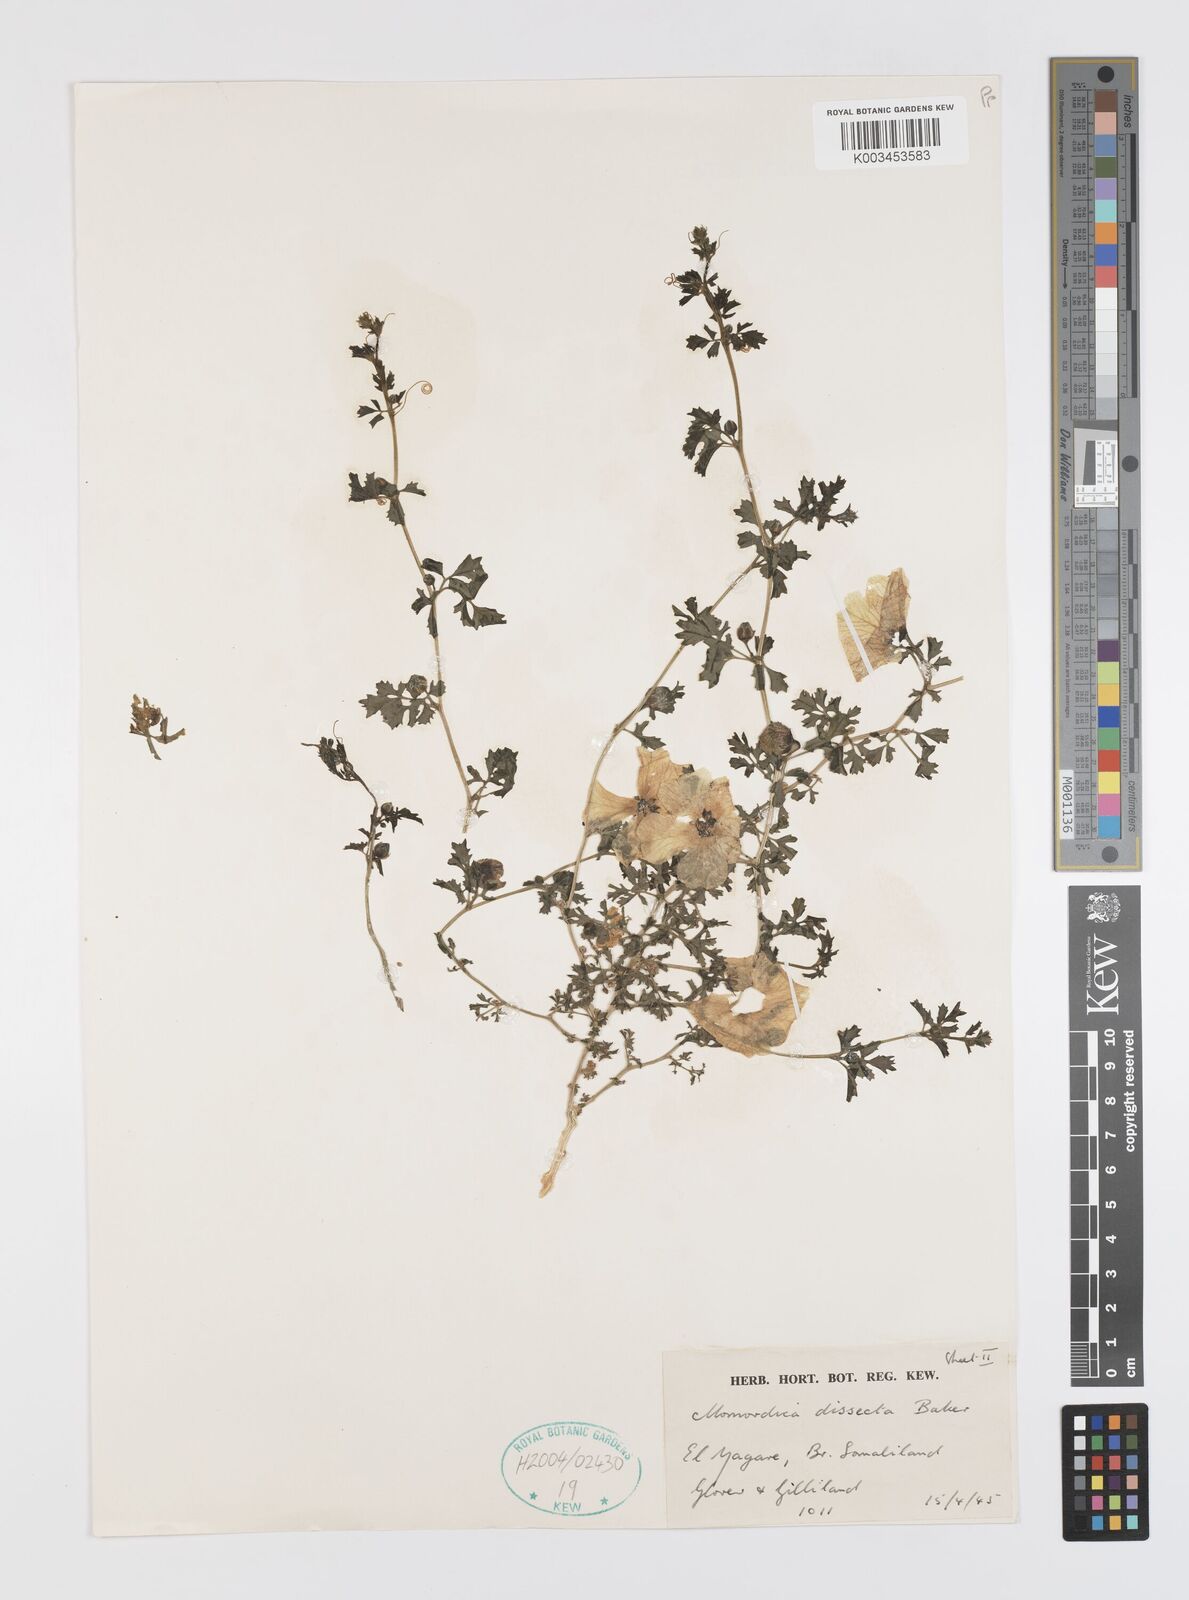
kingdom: Plantae
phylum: Tracheophyta
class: Magnoliopsida
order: Cucurbitales
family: Cucurbitaceae
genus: Momordica
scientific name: Momordica dissecta
